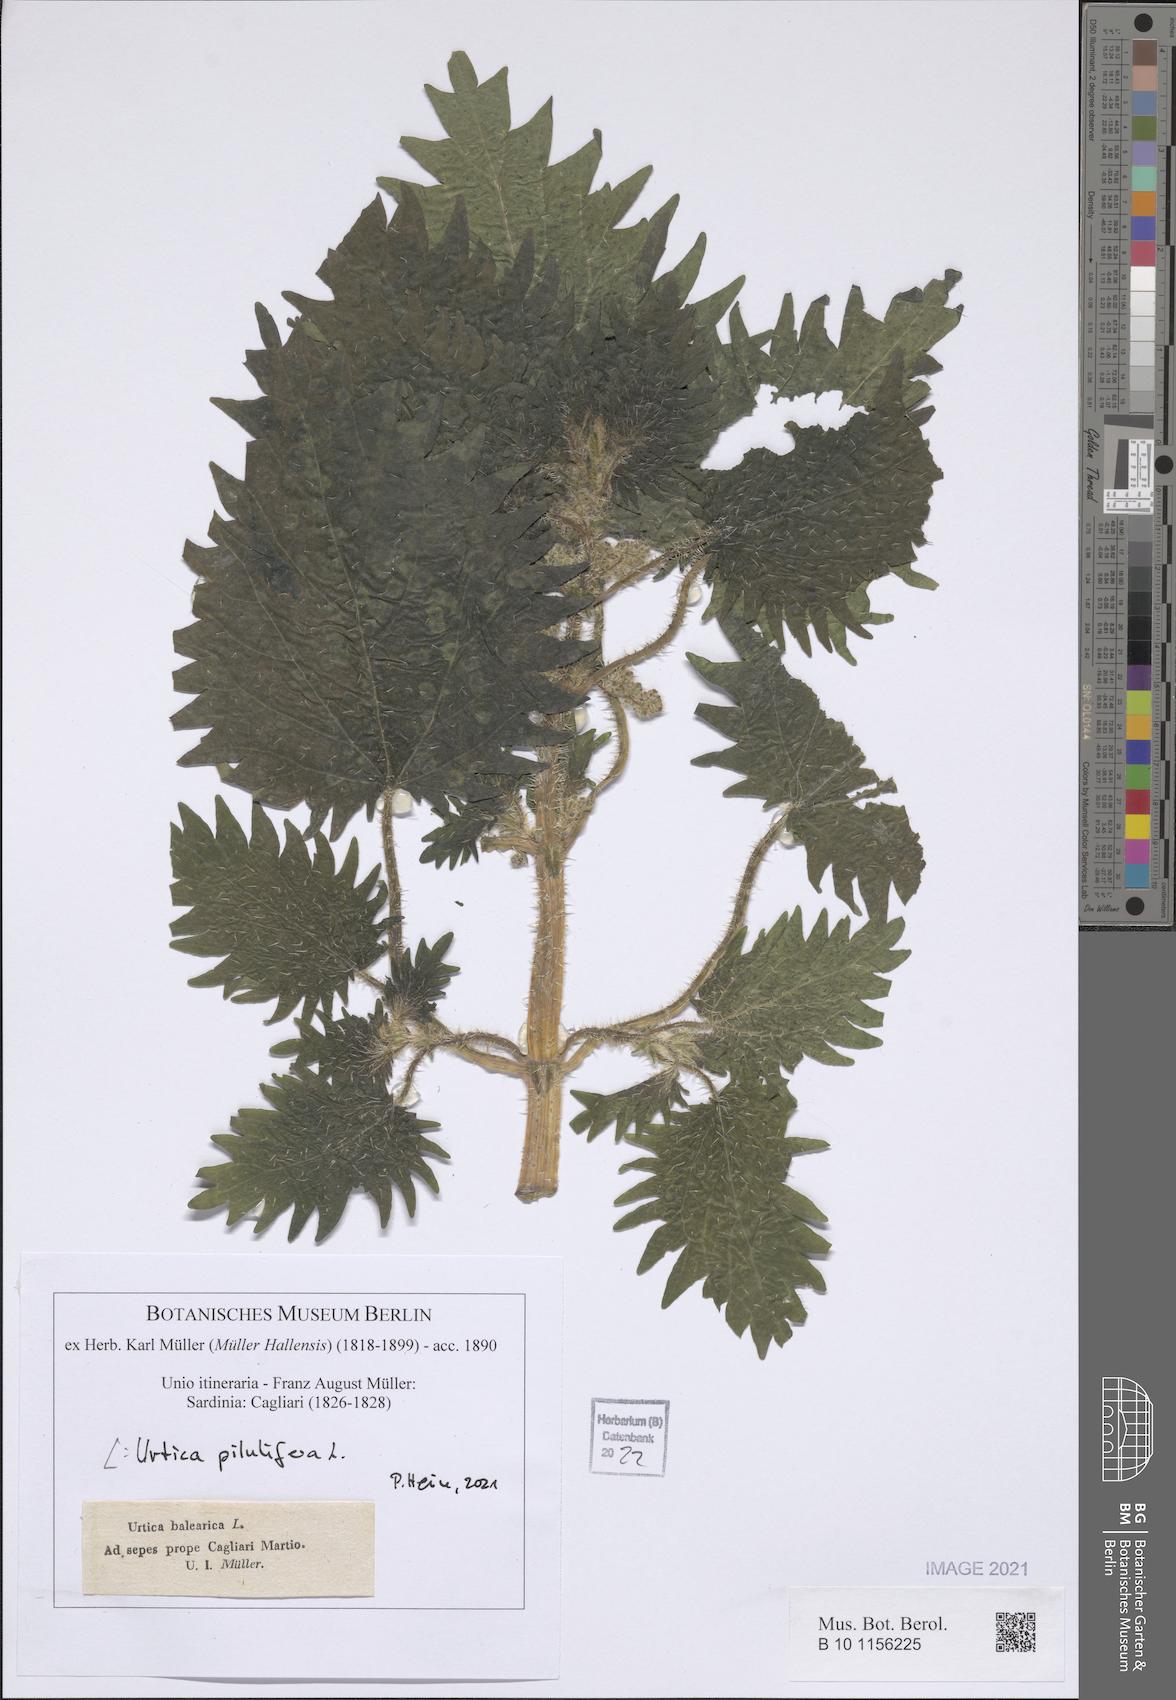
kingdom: Plantae
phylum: Tracheophyta
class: Magnoliopsida
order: Rosales
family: Urticaceae
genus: Urtica
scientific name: Urtica pilulifera
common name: Roman nettle
